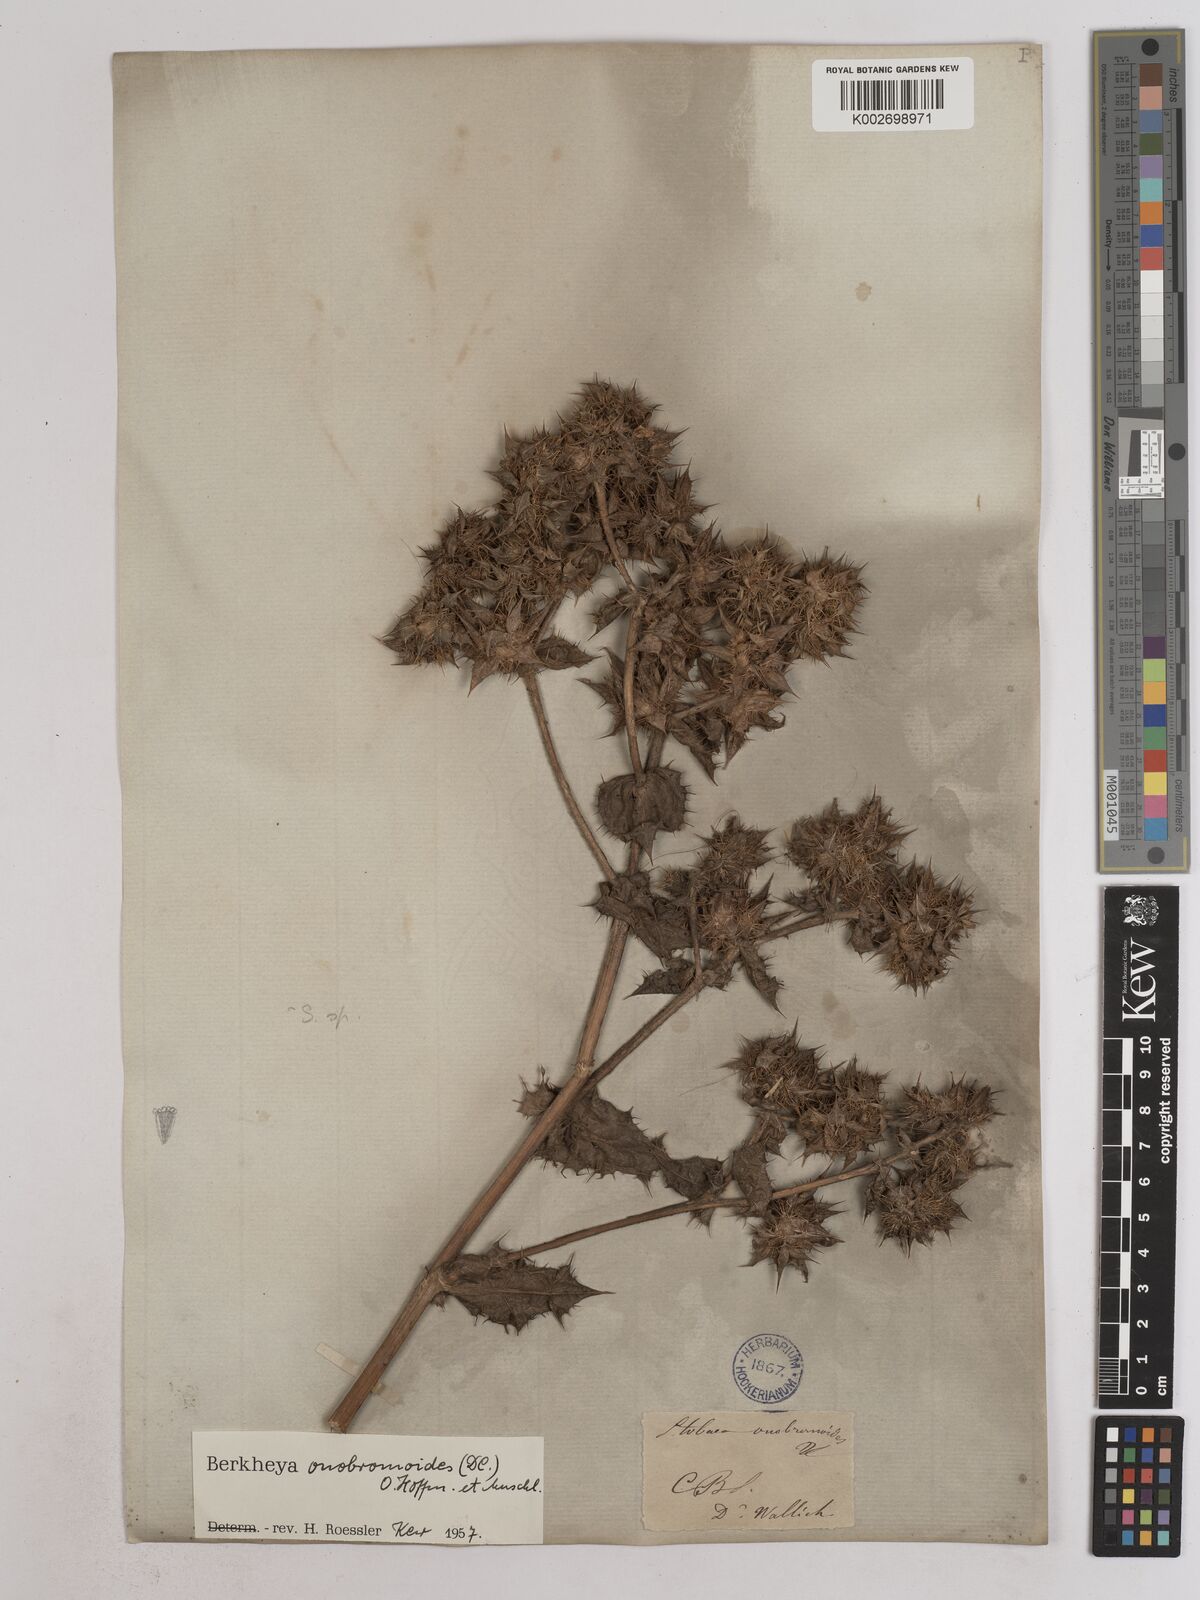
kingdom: Plantae
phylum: Tracheophyta
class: Magnoliopsida
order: Asterales
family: Asteraceae
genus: Berkheya
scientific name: Berkheya onobromoides
